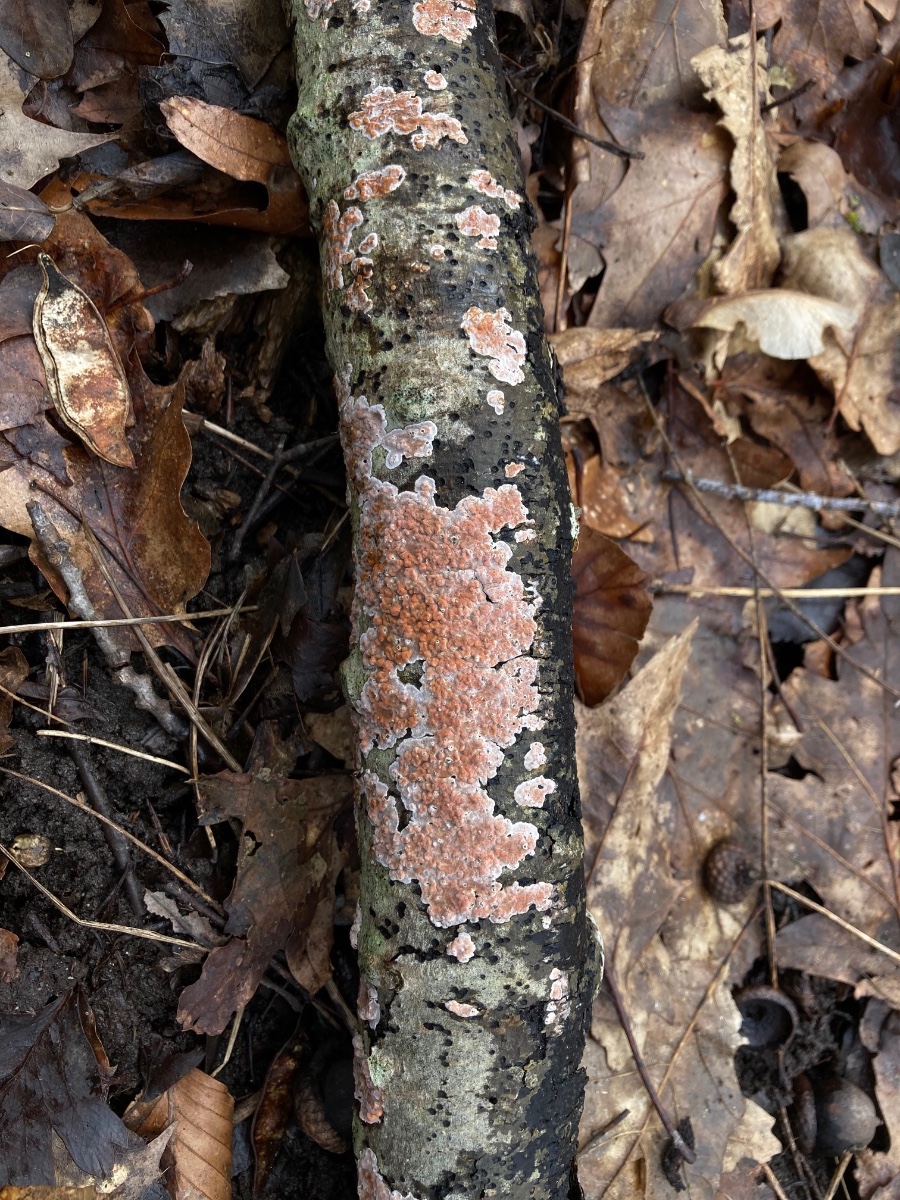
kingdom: Fungi
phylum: Basidiomycota
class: Agaricomycetes
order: Russulales
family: Peniophoraceae
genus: Peniophora
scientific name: Peniophora polygonia
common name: polygon-voksskind
